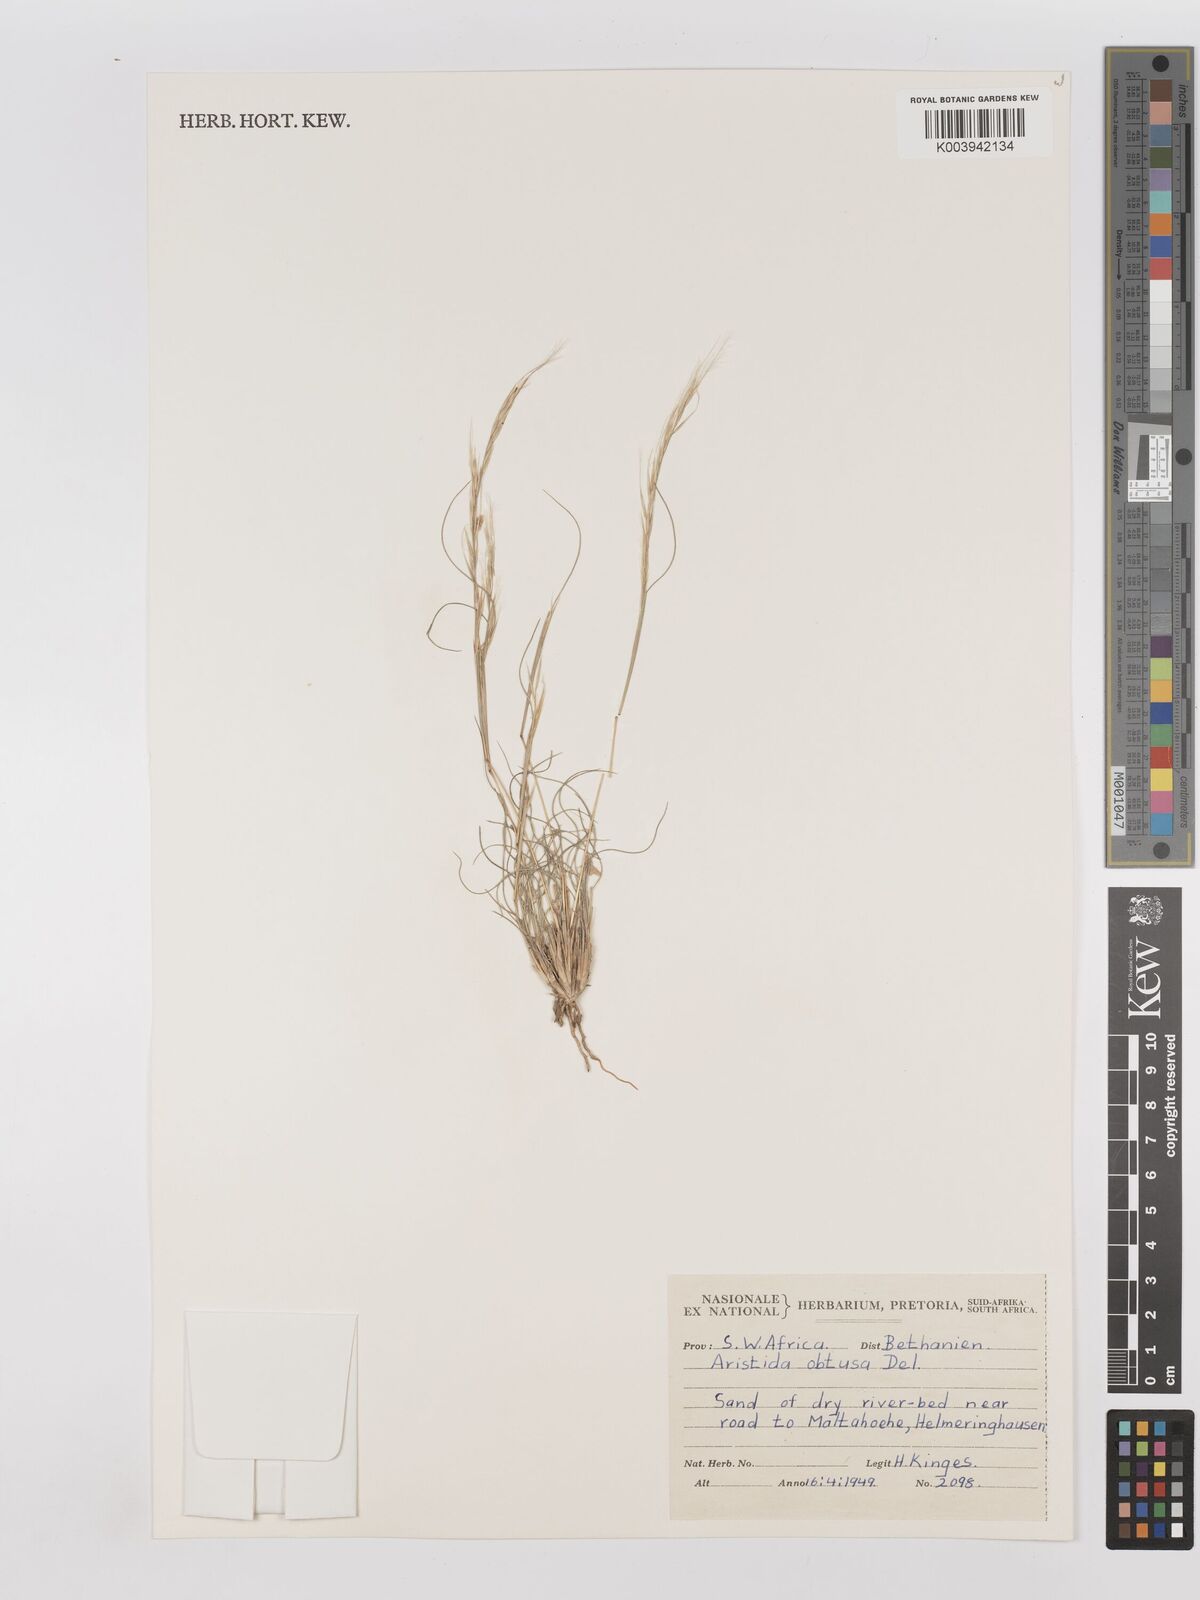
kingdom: Plantae
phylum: Tracheophyta
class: Liliopsida
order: Poales
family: Poaceae
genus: Stipagrostis
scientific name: Stipagrostis obtusa
